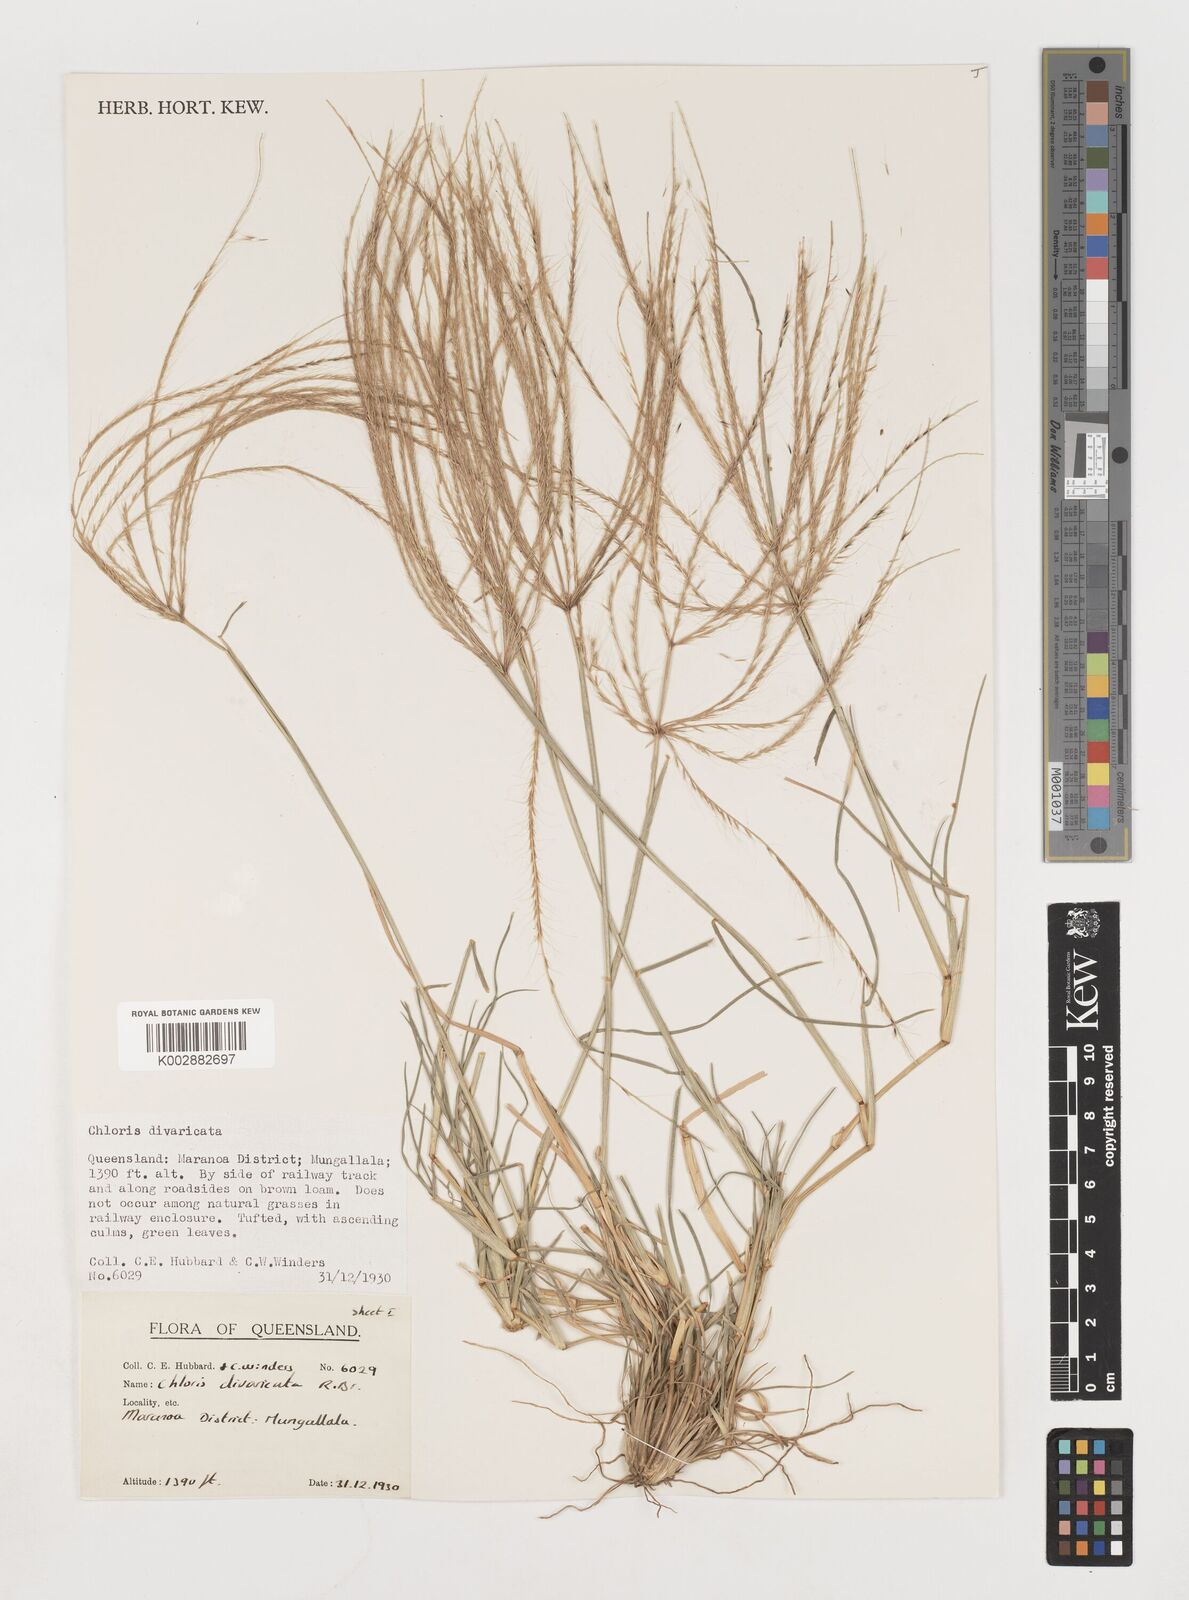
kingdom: Plantae
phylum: Tracheophyta
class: Liliopsida
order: Poales
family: Poaceae
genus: Chloris
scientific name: Chloris divaricata
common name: Spreading windmill grass
